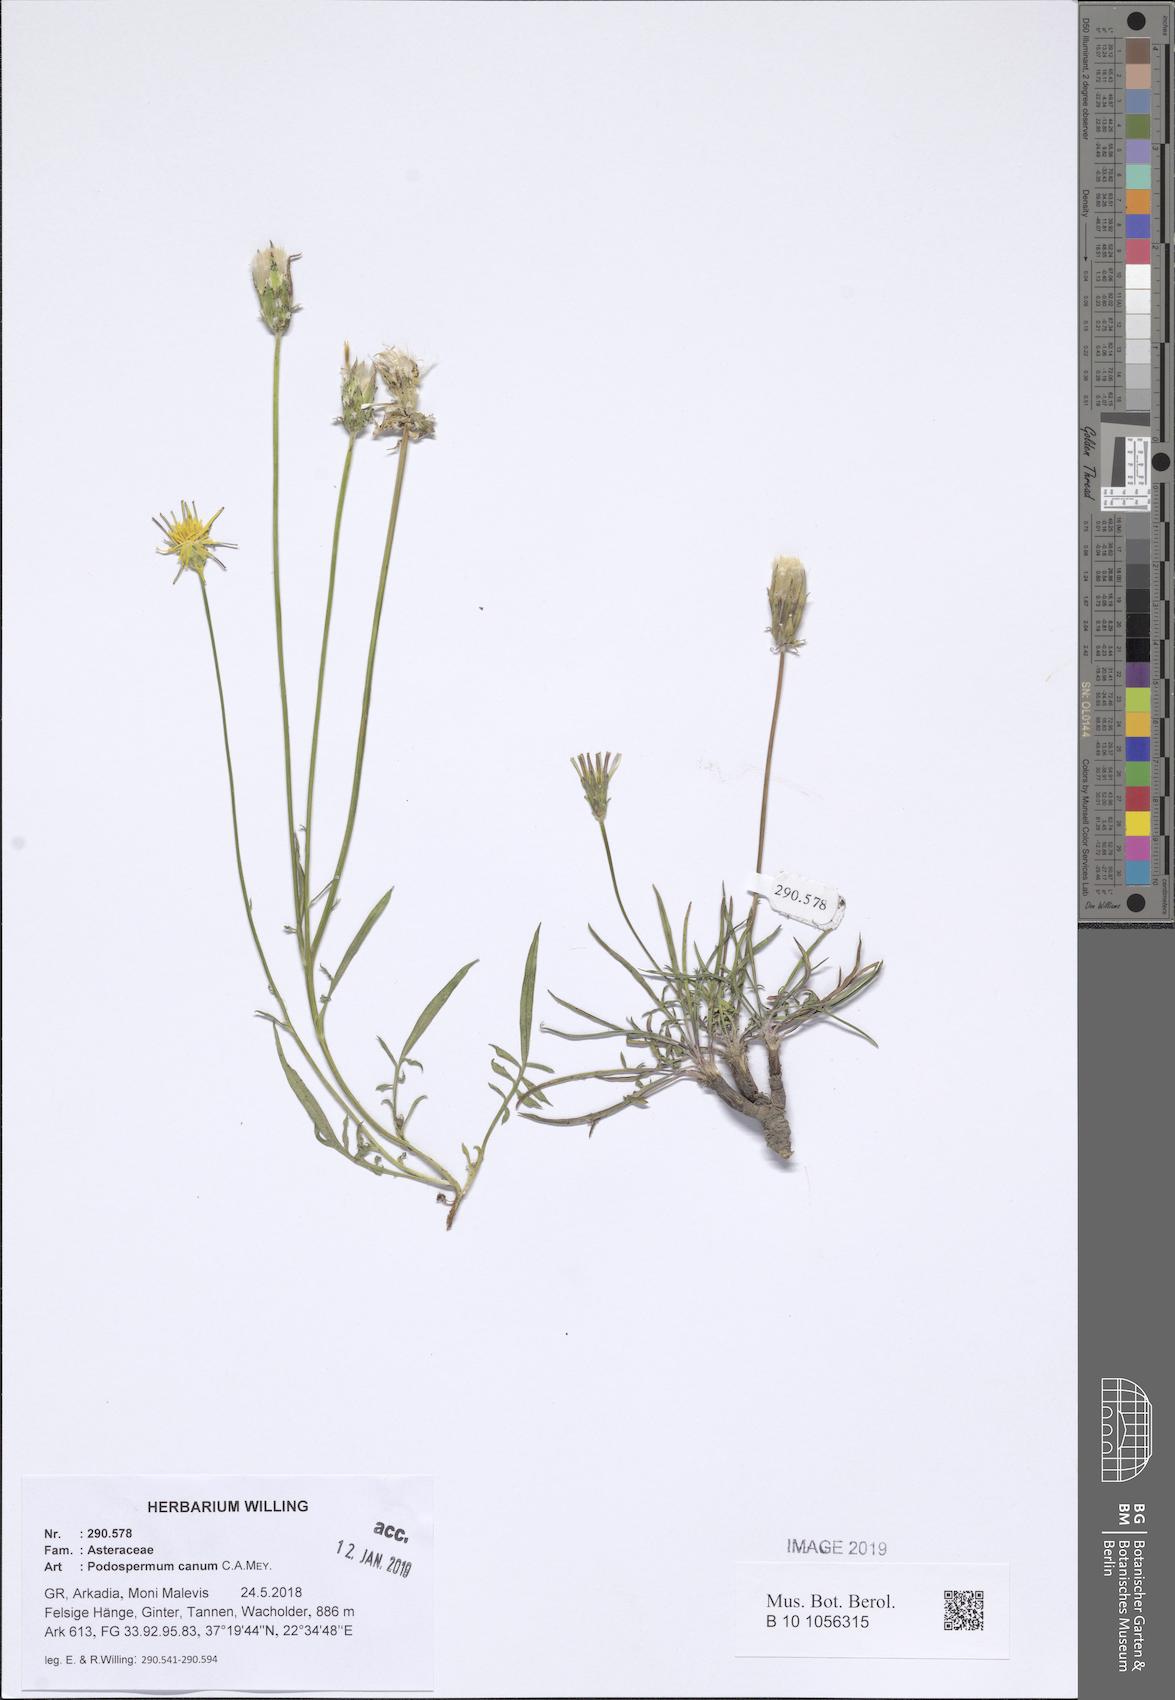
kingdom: Plantae
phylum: Tracheophyta
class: Magnoliopsida
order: Asterales
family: Asteraceae
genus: Scorzonera
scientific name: Scorzonera cana
